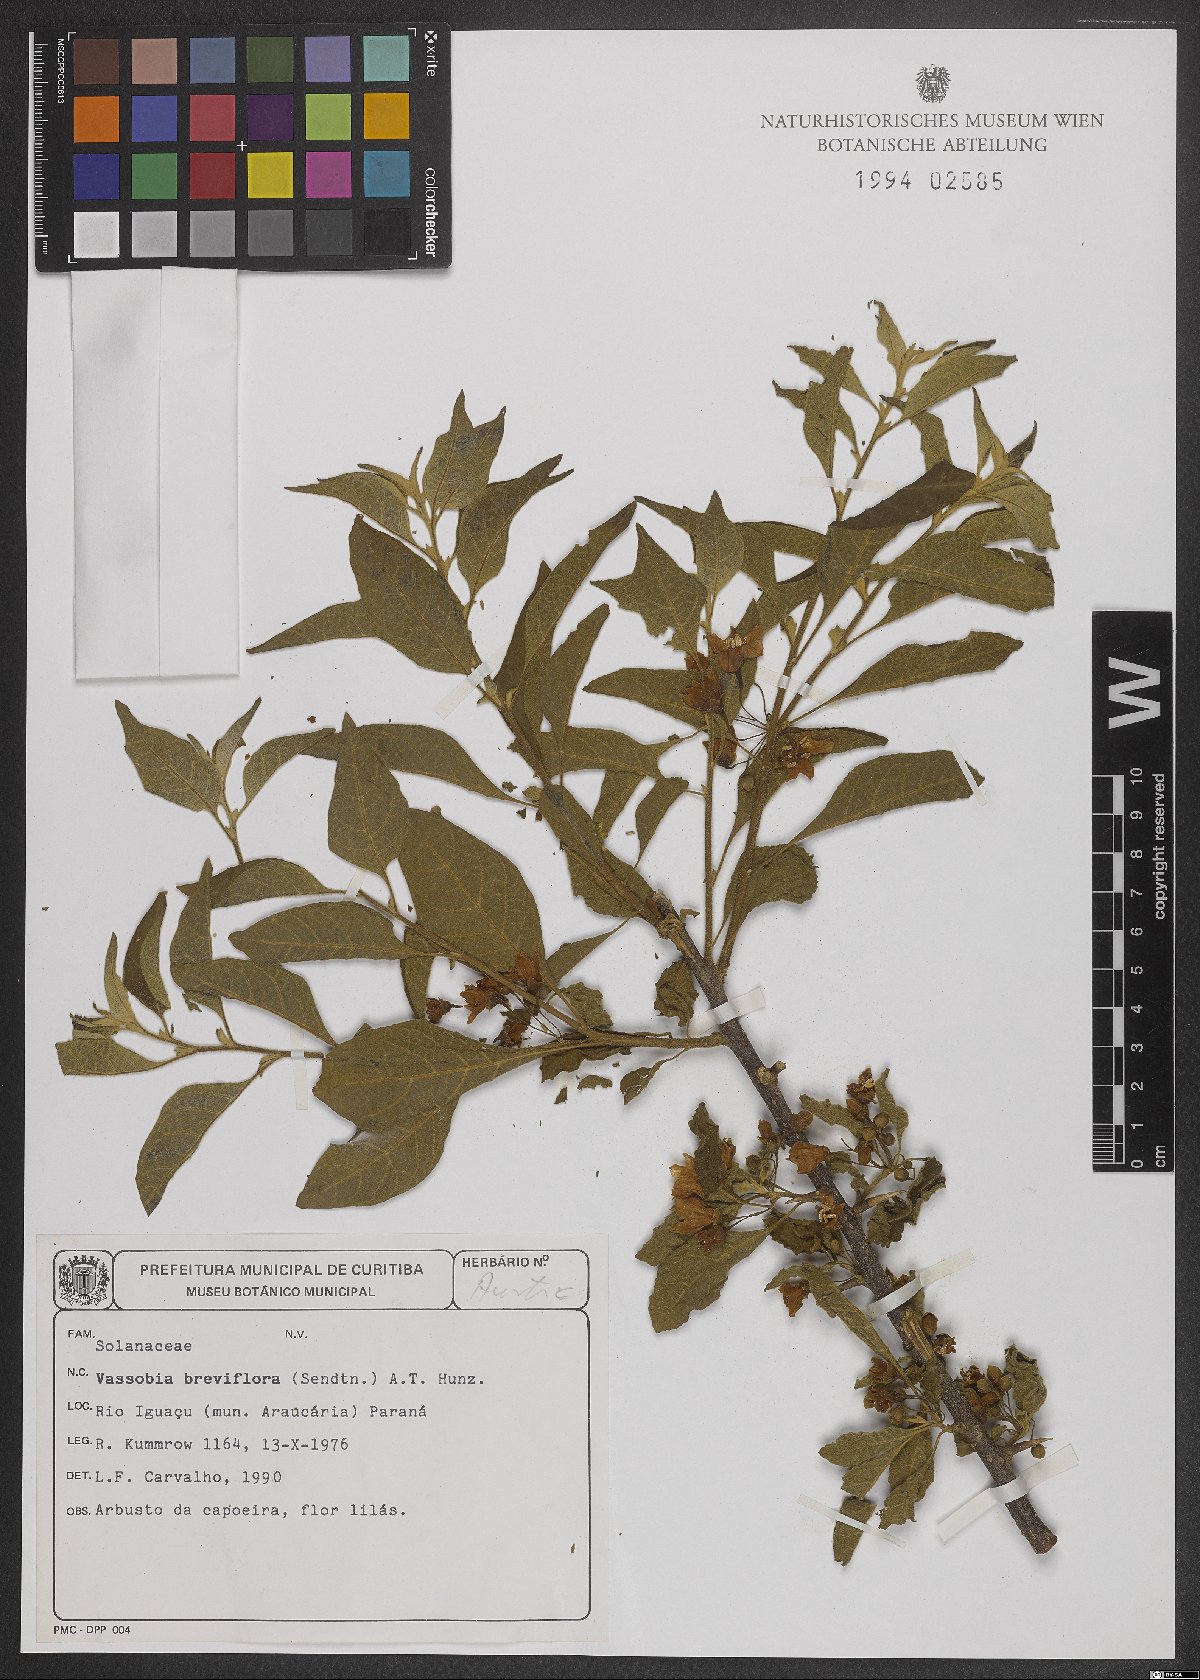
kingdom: Plantae
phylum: Tracheophyta
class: Magnoliopsida
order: Solanales
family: Solanaceae
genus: Vassobia
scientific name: Vassobia breviflora
